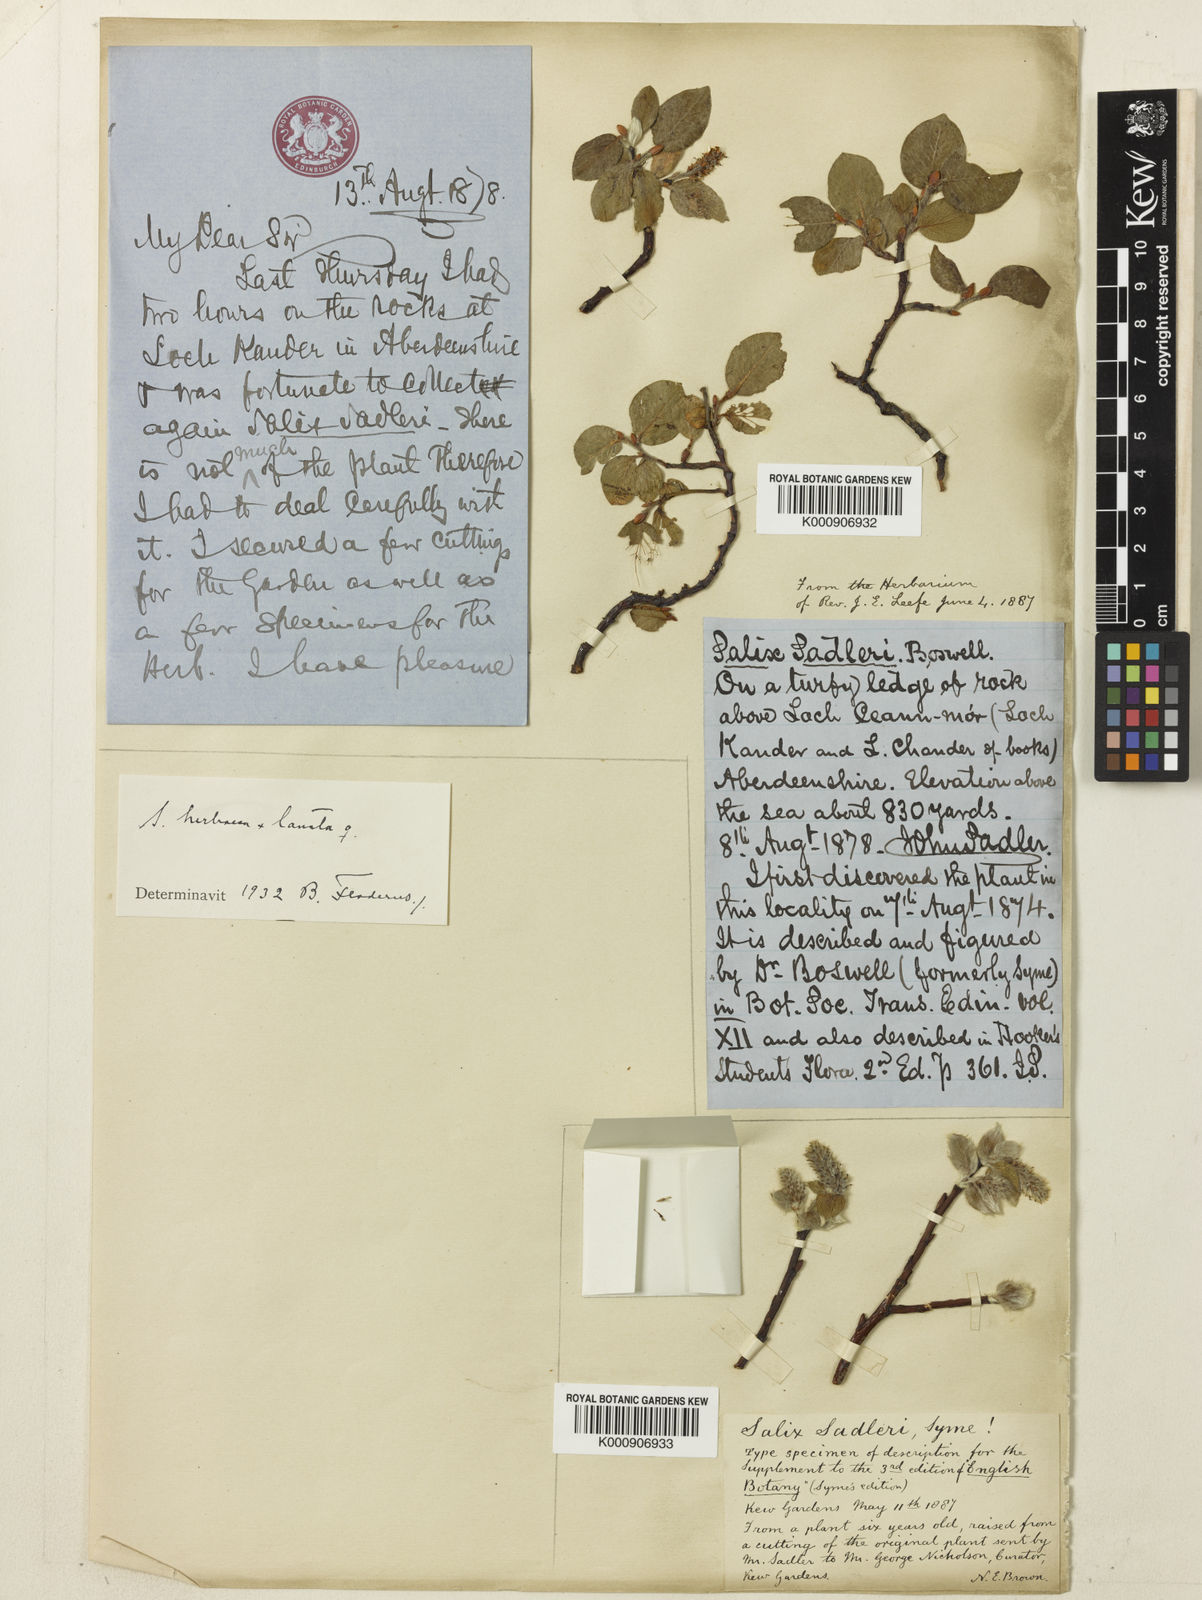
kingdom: Plantae
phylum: Tracheophyta
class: Magnoliopsida
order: Malpighiales
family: Salicaceae
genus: Salix
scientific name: Salix herbacea
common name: Dwarf willow
